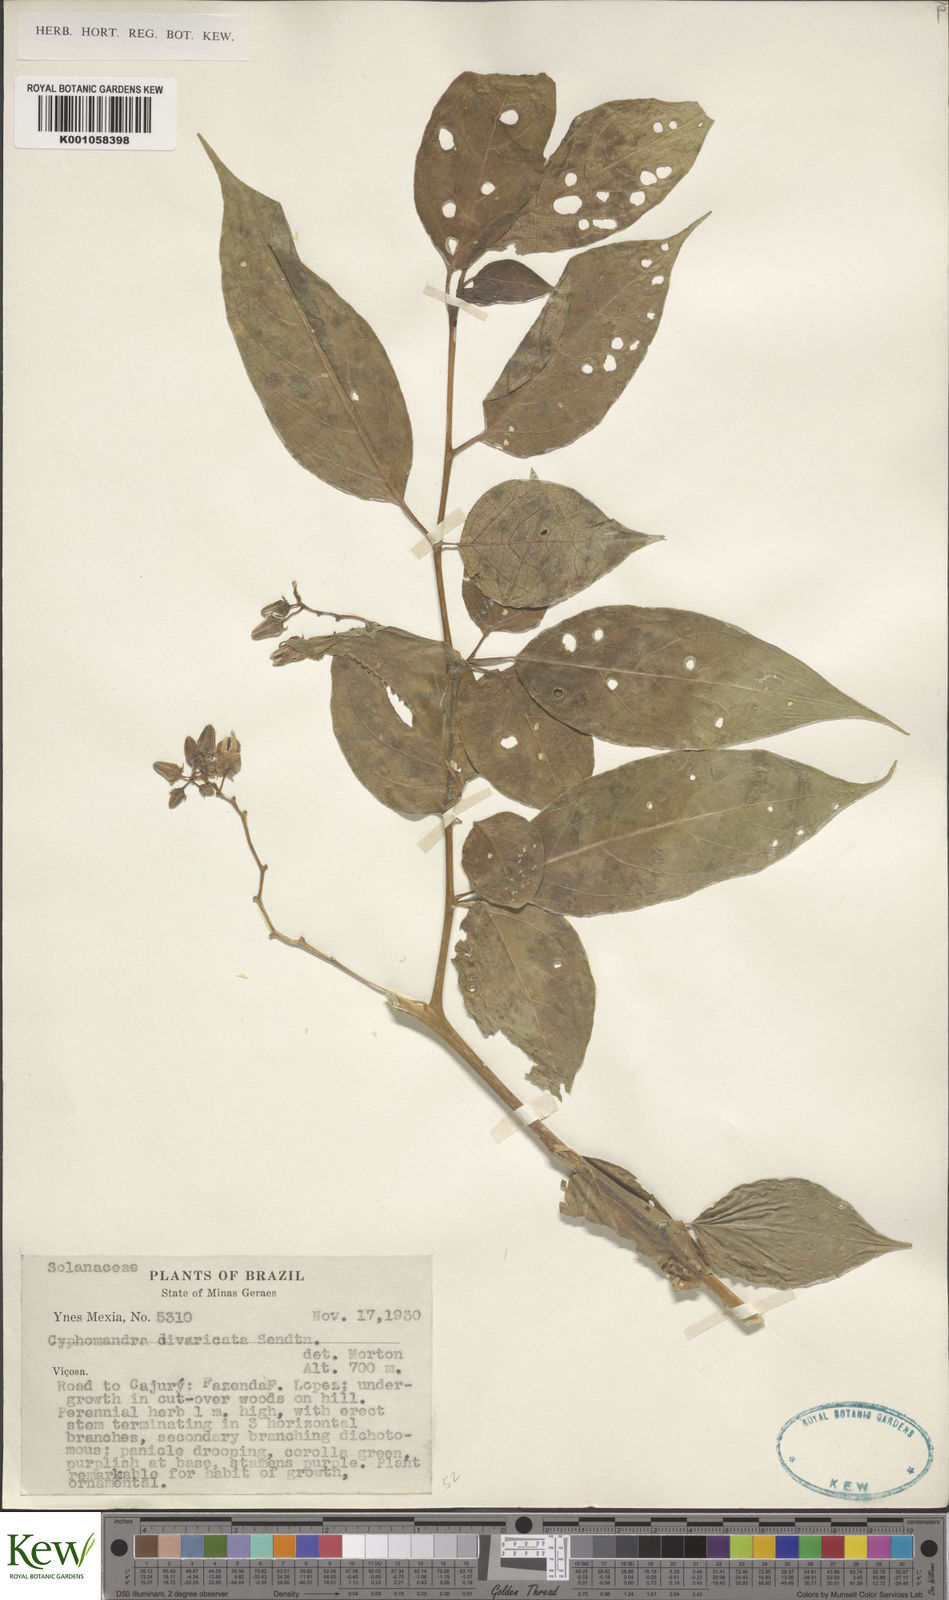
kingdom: Plantae
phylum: Tracheophyta
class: Magnoliopsida
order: Solanales
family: Solanaceae
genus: Solanum
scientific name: Solanum melissarum
